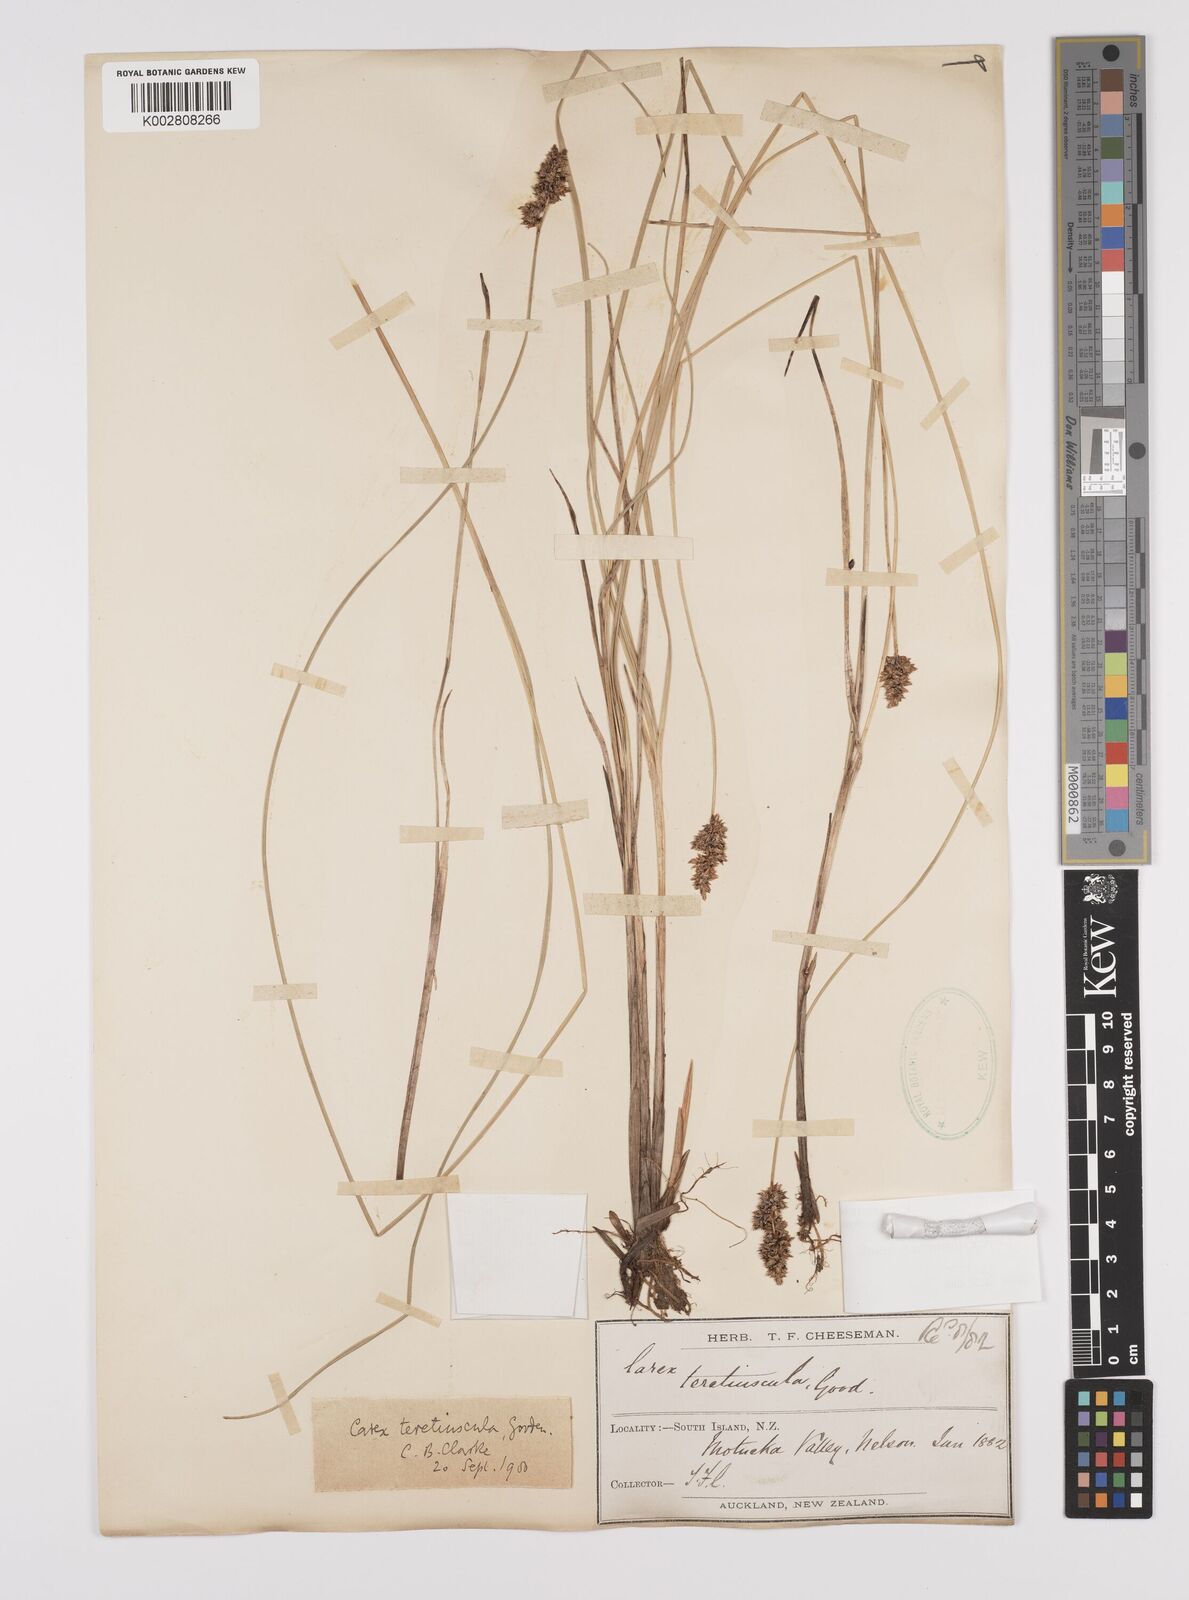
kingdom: Plantae
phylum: Tracheophyta
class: Liliopsida
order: Poales
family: Cyperaceae
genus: Carex
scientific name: Carex diandra
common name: Lesser tussock-sedge
